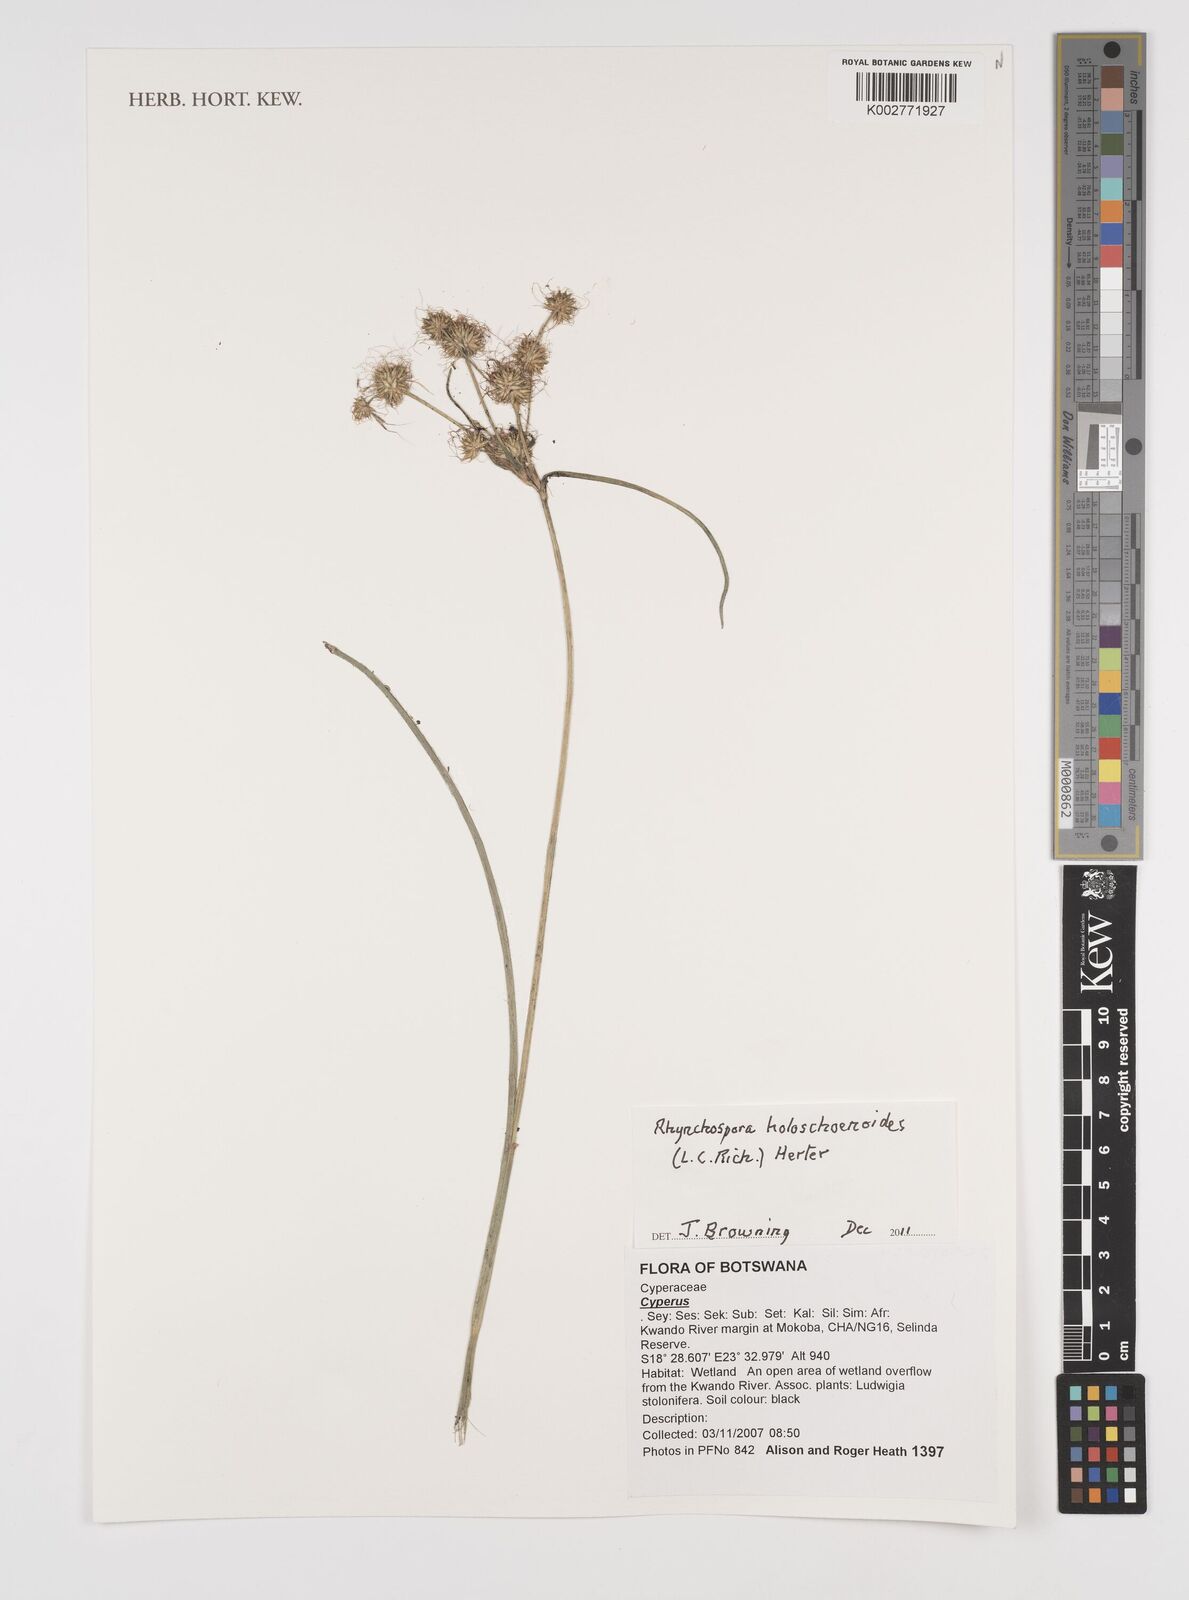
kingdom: Plantae
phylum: Tracheophyta
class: Liliopsida
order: Poales
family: Cyperaceae
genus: Rhynchospora
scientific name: Rhynchospora holoschoenoides
